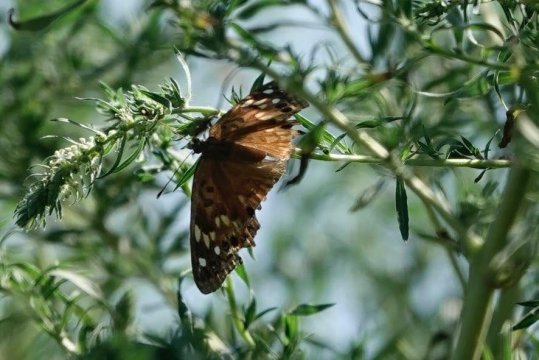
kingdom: Animalia
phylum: Arthropoda
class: Insecta
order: Lepidoptera
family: Nymphalidae
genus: Asterocampa
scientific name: Asterocampa celtis
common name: Hackberry Emperor
